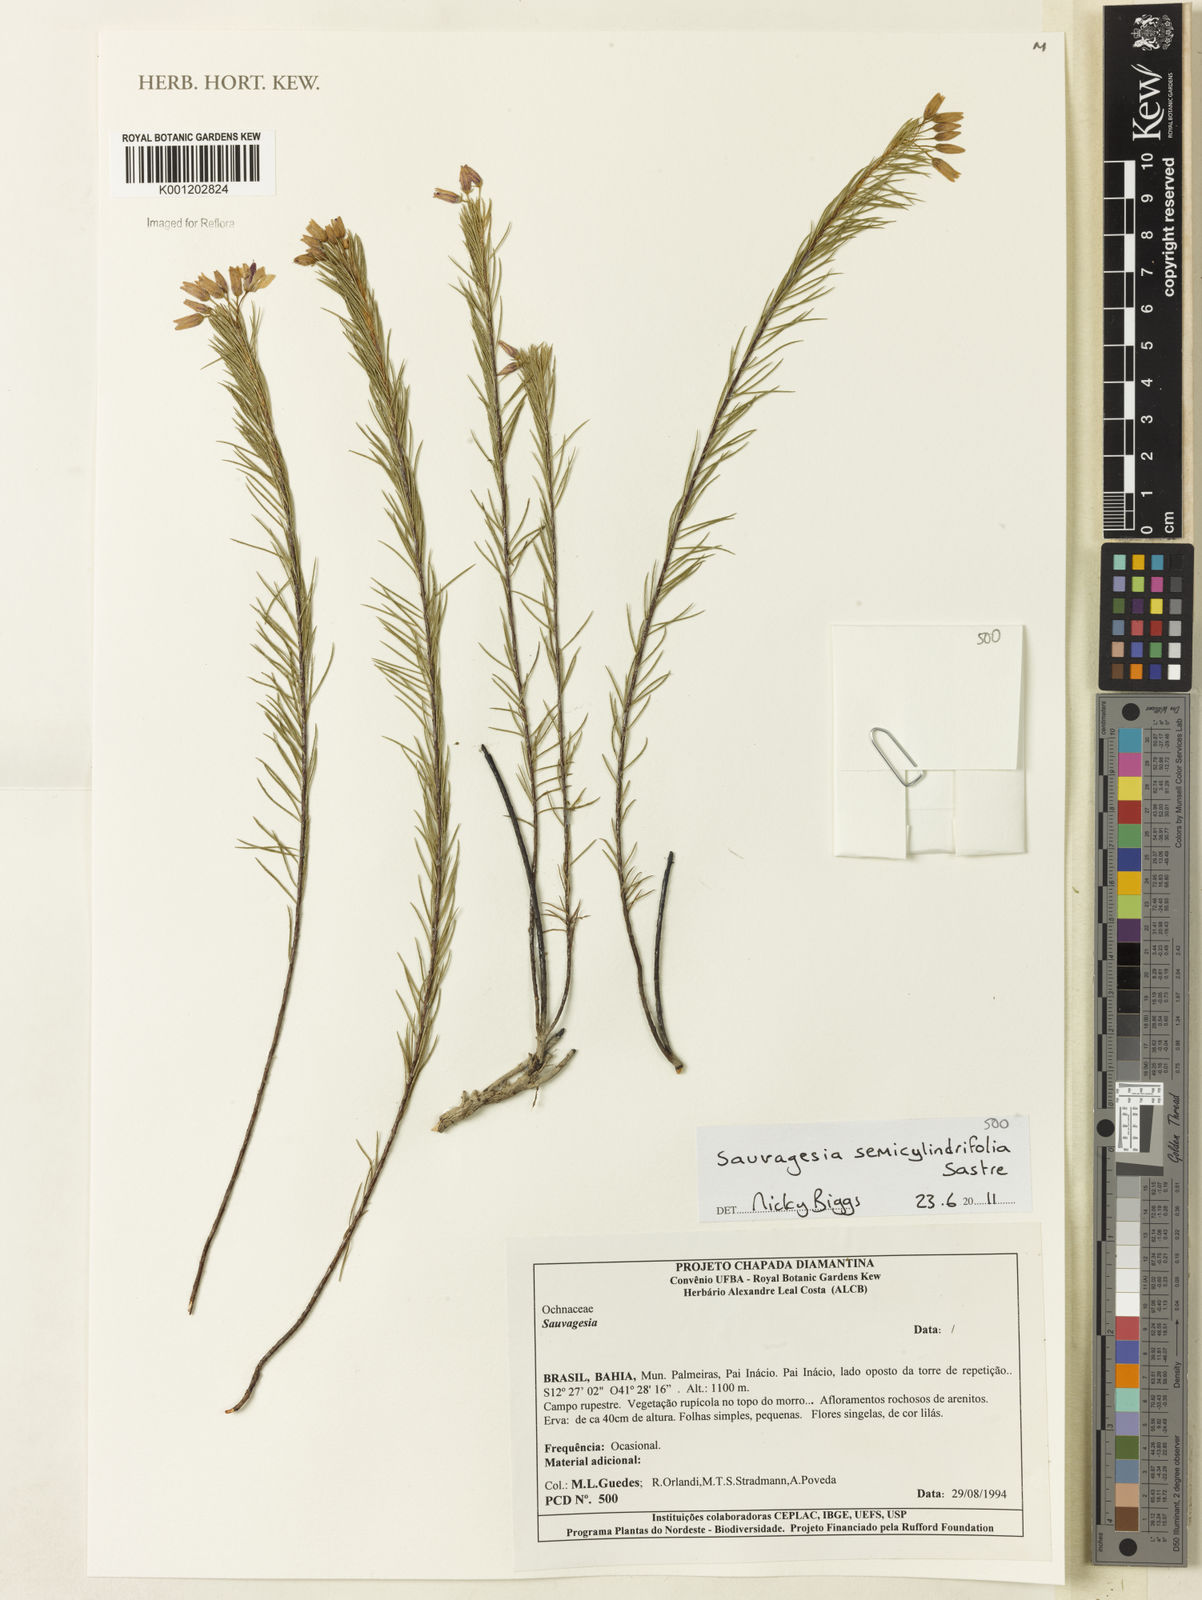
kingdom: Plantae
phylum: Tracheophyta
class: Magnoliopsida
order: Malpighiales
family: Ochnaceae
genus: Sauvagesia
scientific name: Sauvagesia semicylindrifolia
